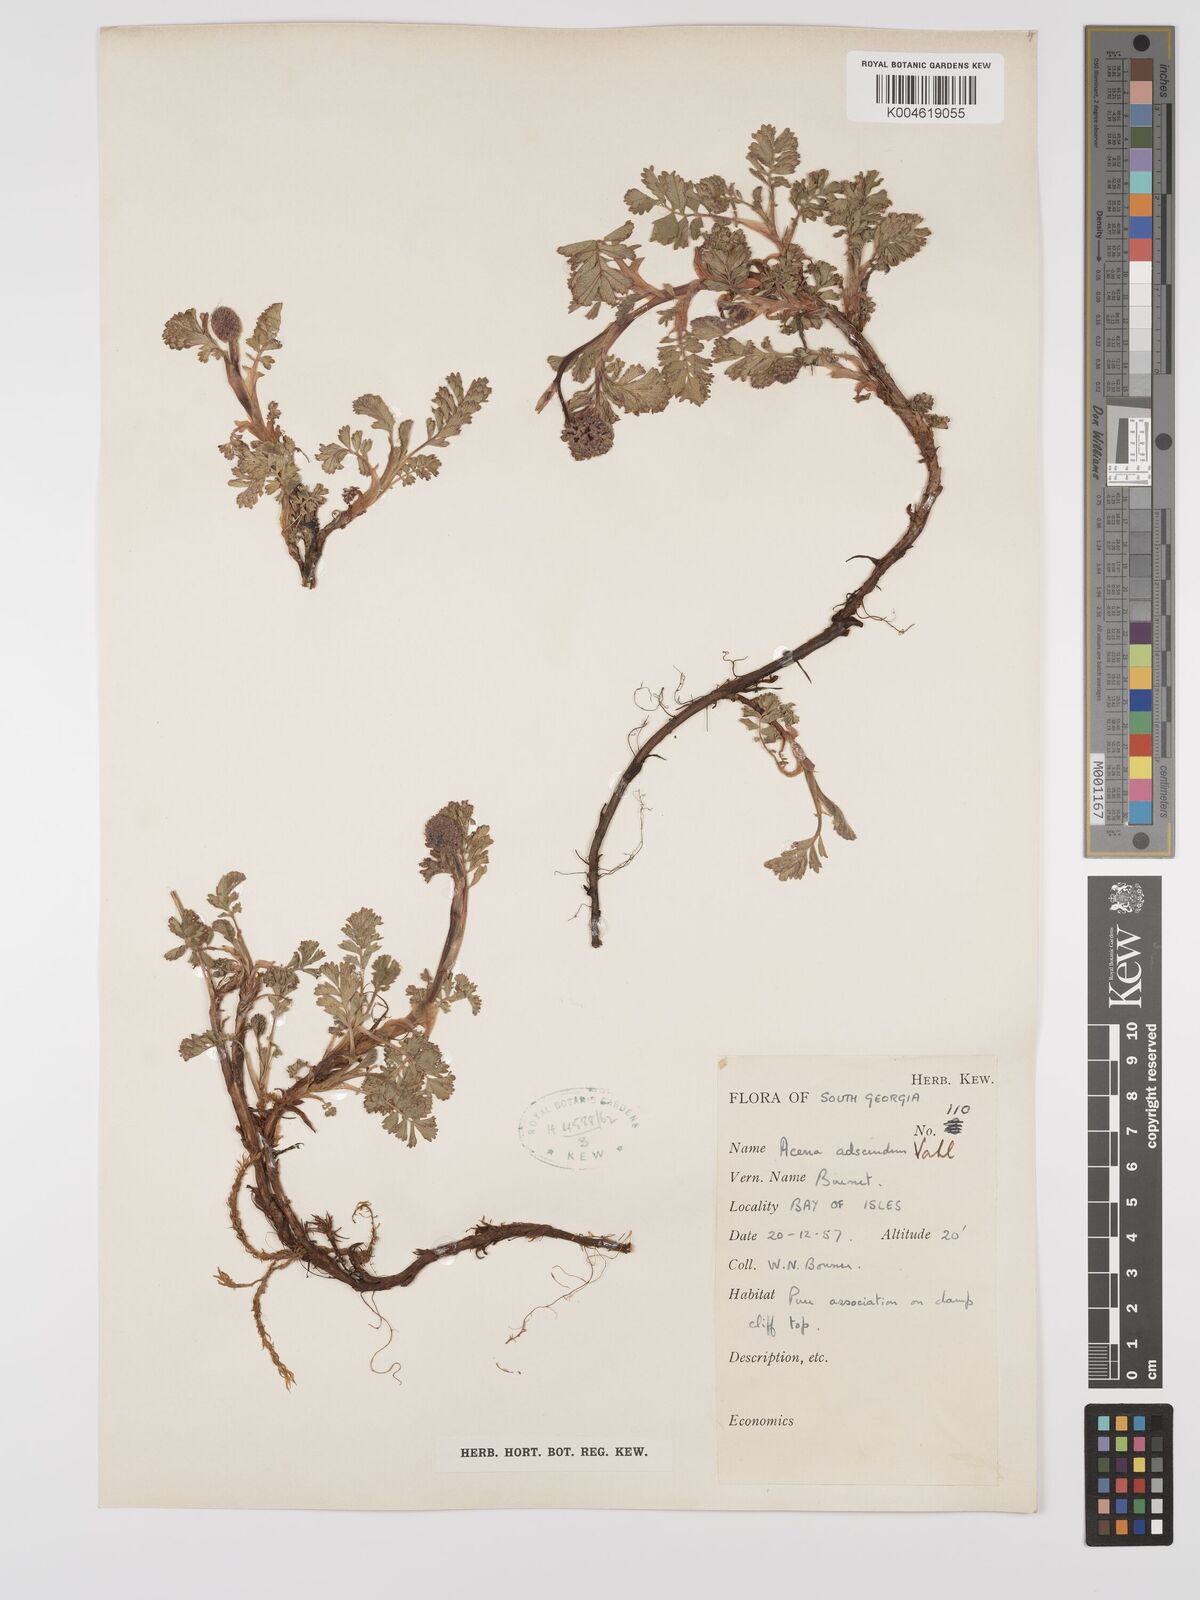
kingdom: Plantae
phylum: Tracheophyta
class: Magnoliopsida
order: Rosales
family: Rosaceae
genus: Acaena
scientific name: Acaena magellanica
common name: New zealand burr
